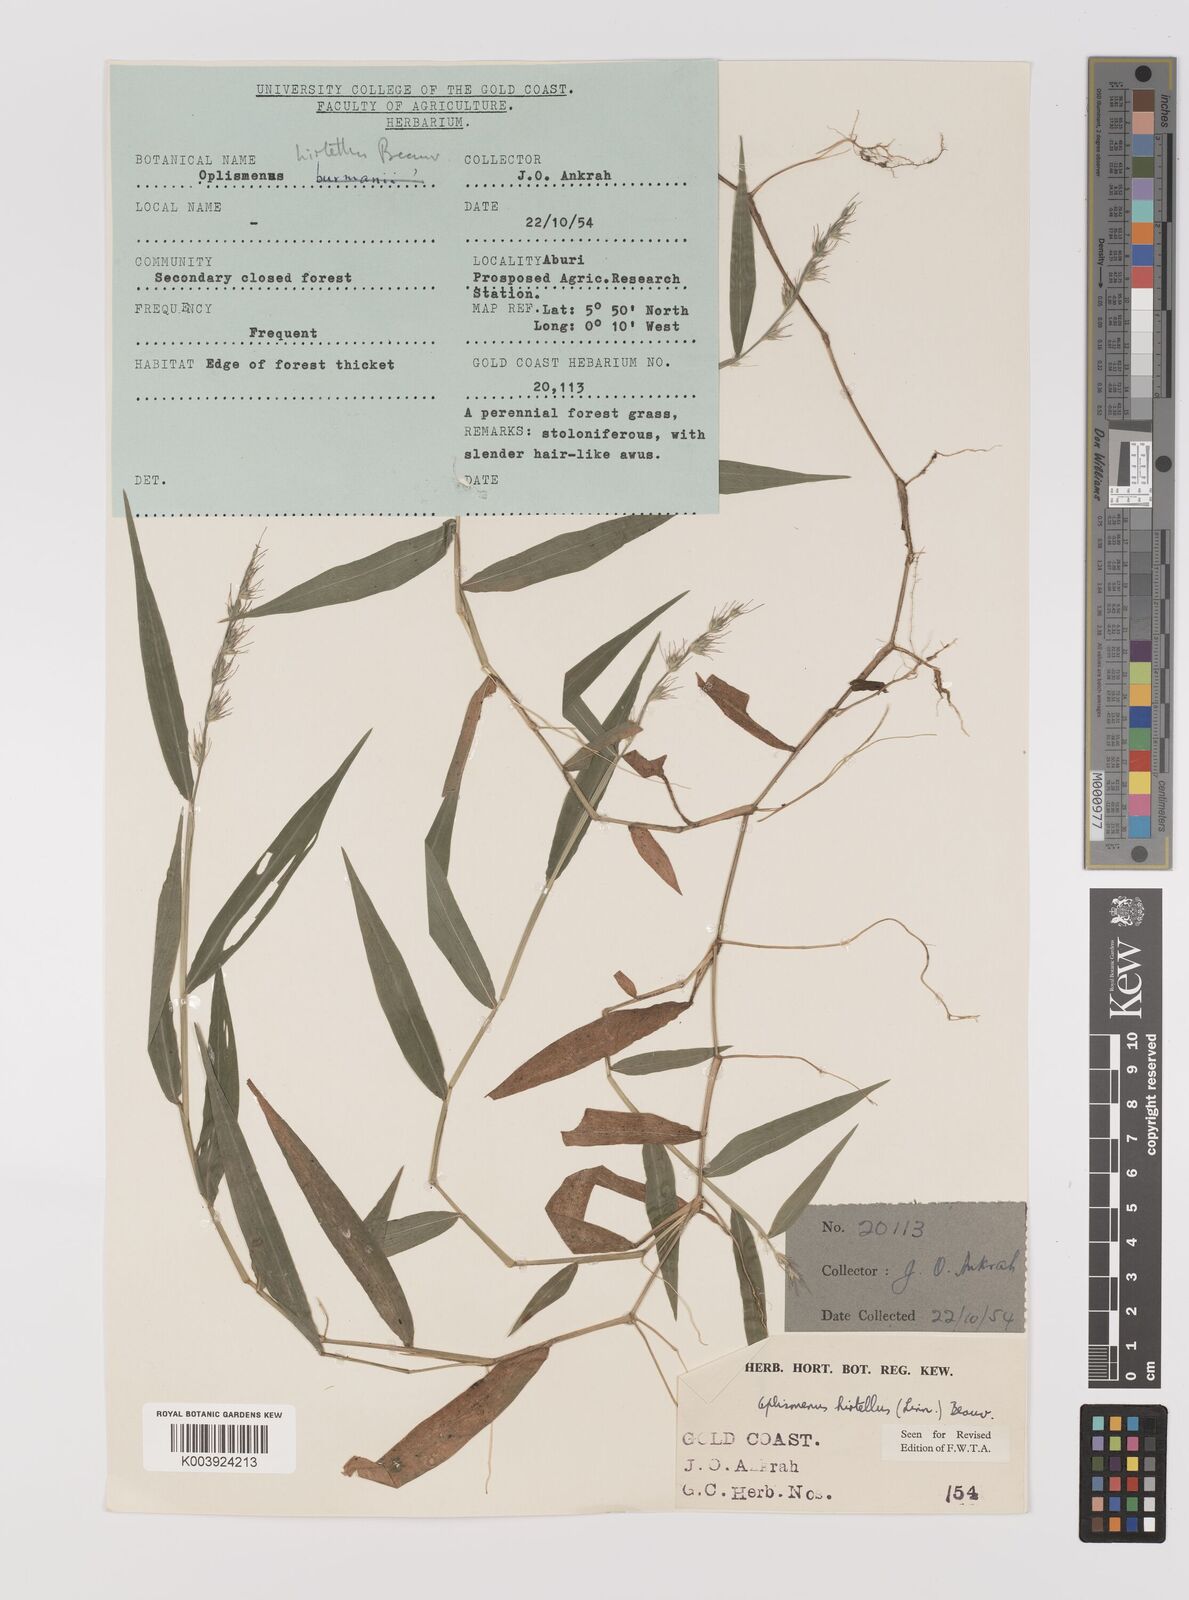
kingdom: Plantae
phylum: Tracheophyta
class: Liliopsida
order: Poales
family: Poaceae
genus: Oplismenus
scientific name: Oplismenus hirtellus
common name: Basketgrass
